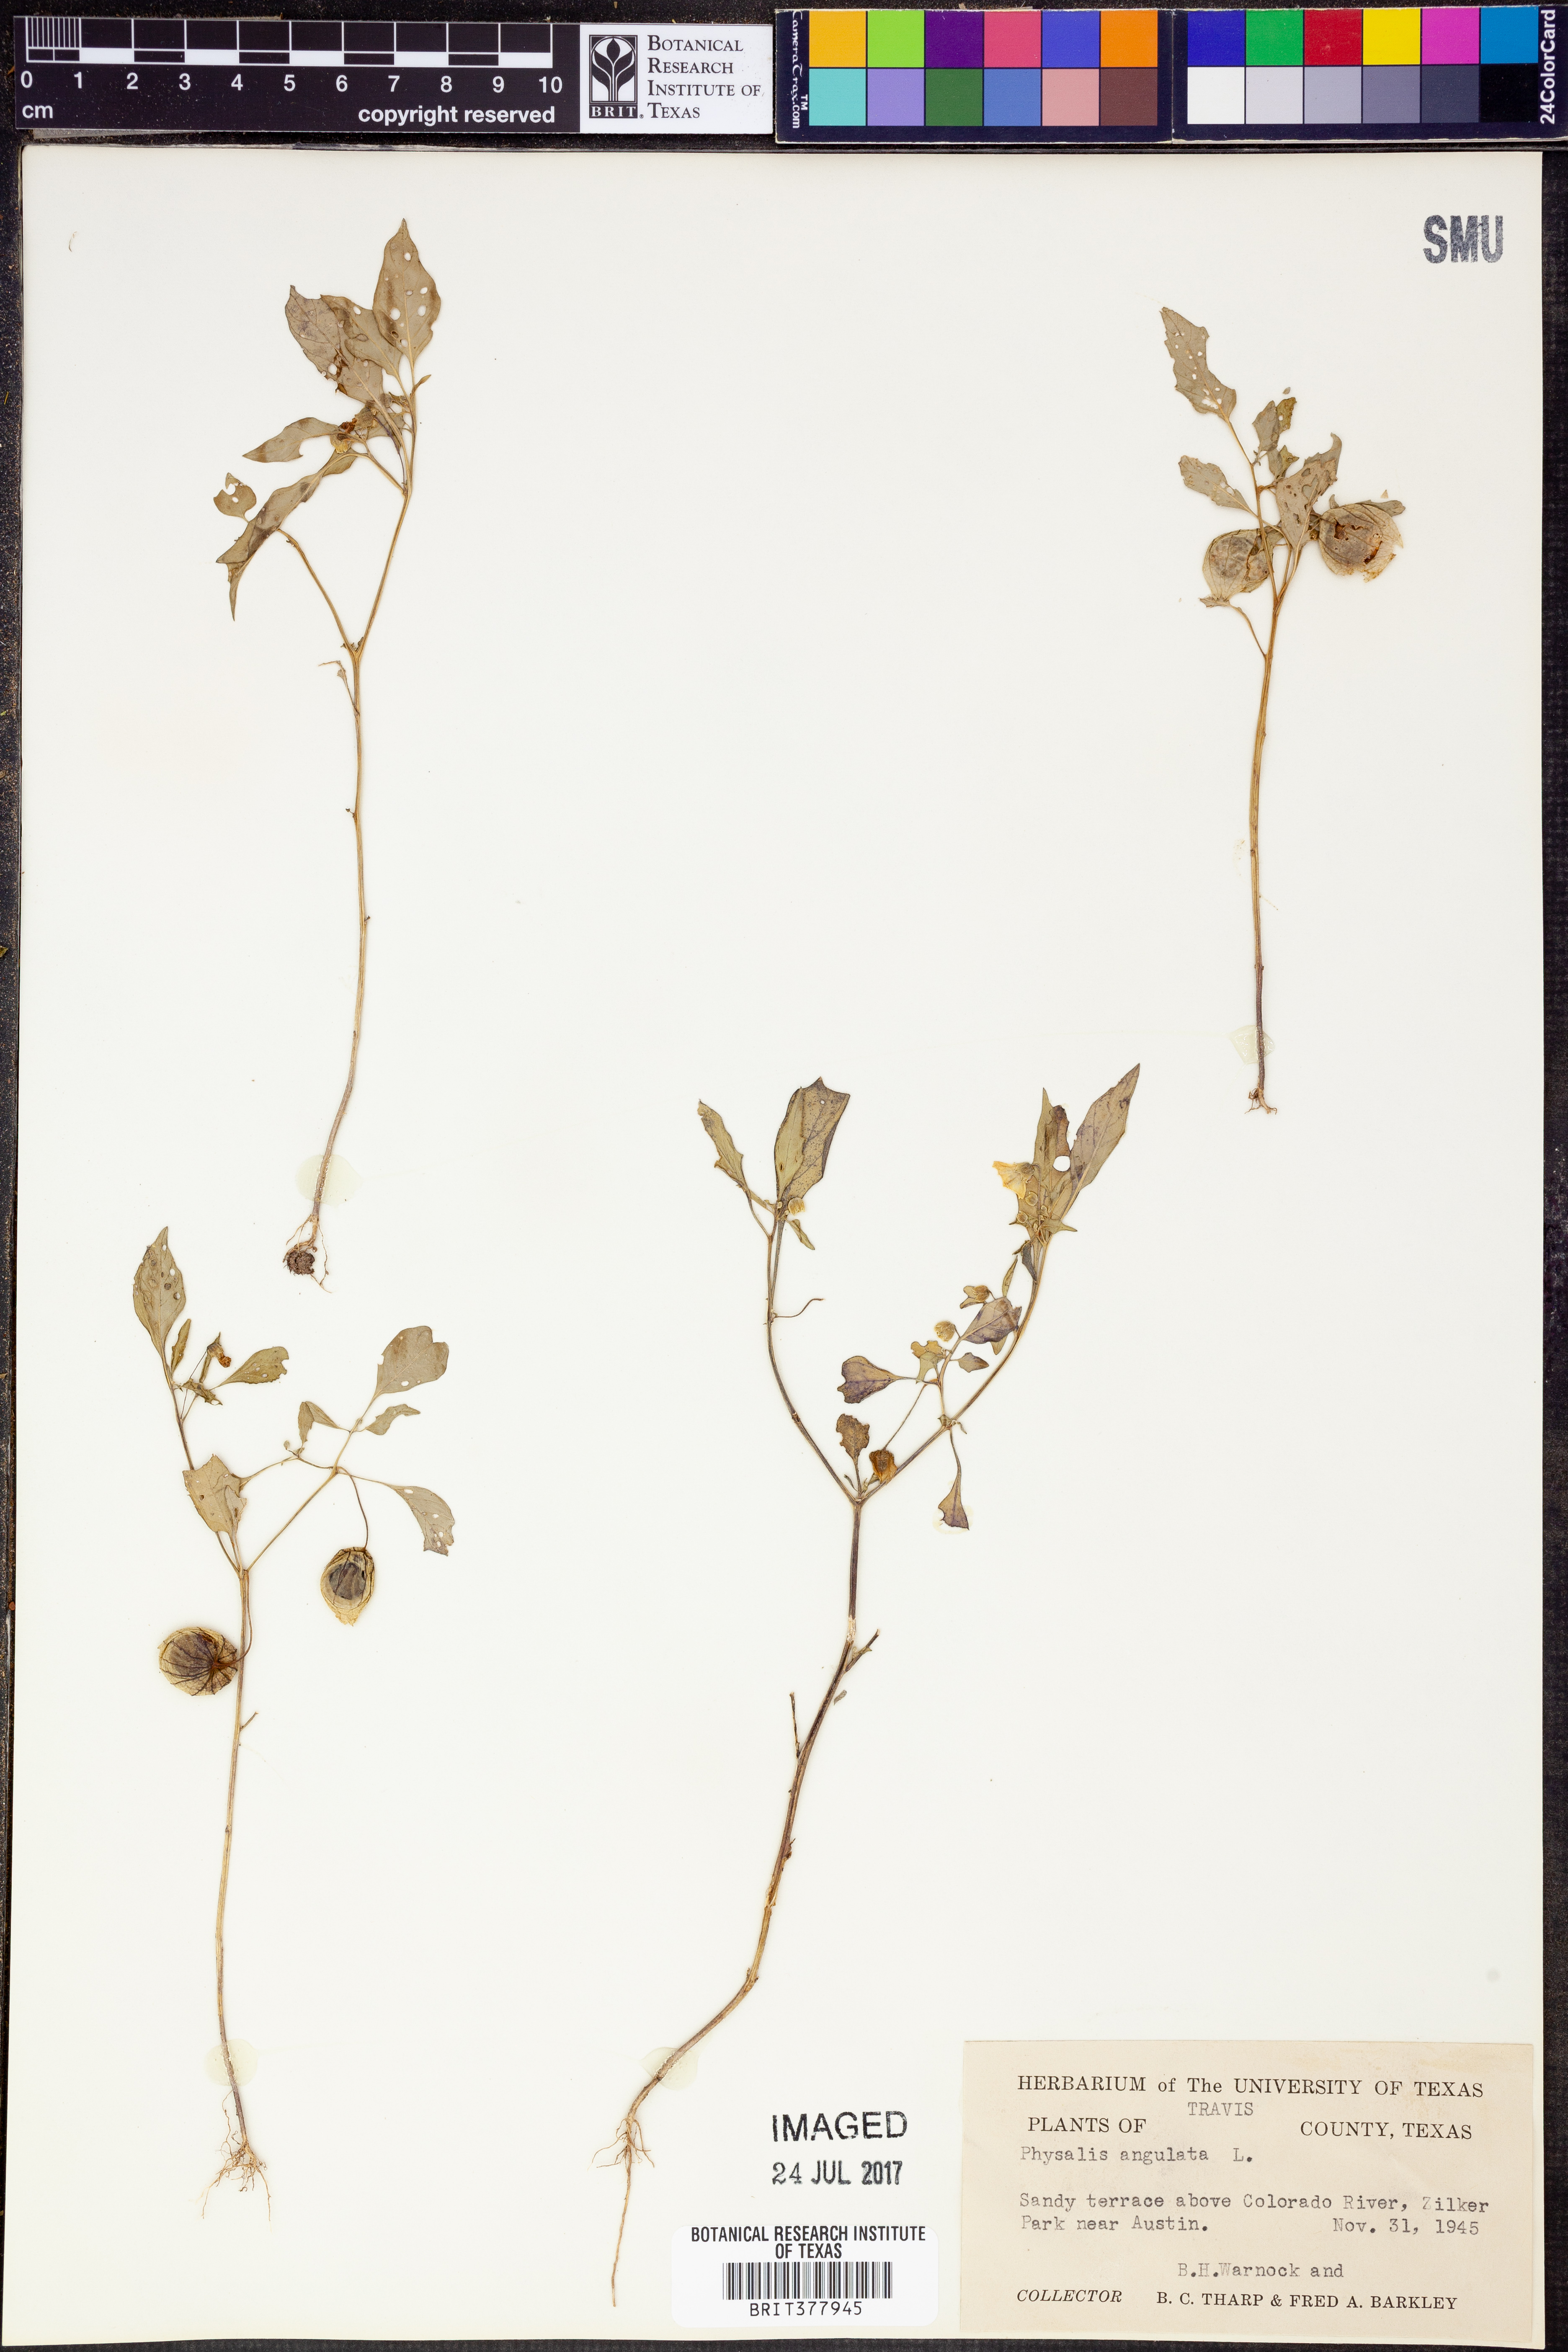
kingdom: Plantae
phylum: Tracheophyta
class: Magnoliopsida
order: Solanales
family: Solanaceae
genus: Physalis
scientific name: Physalis angulata
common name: Angular winter-cherry
